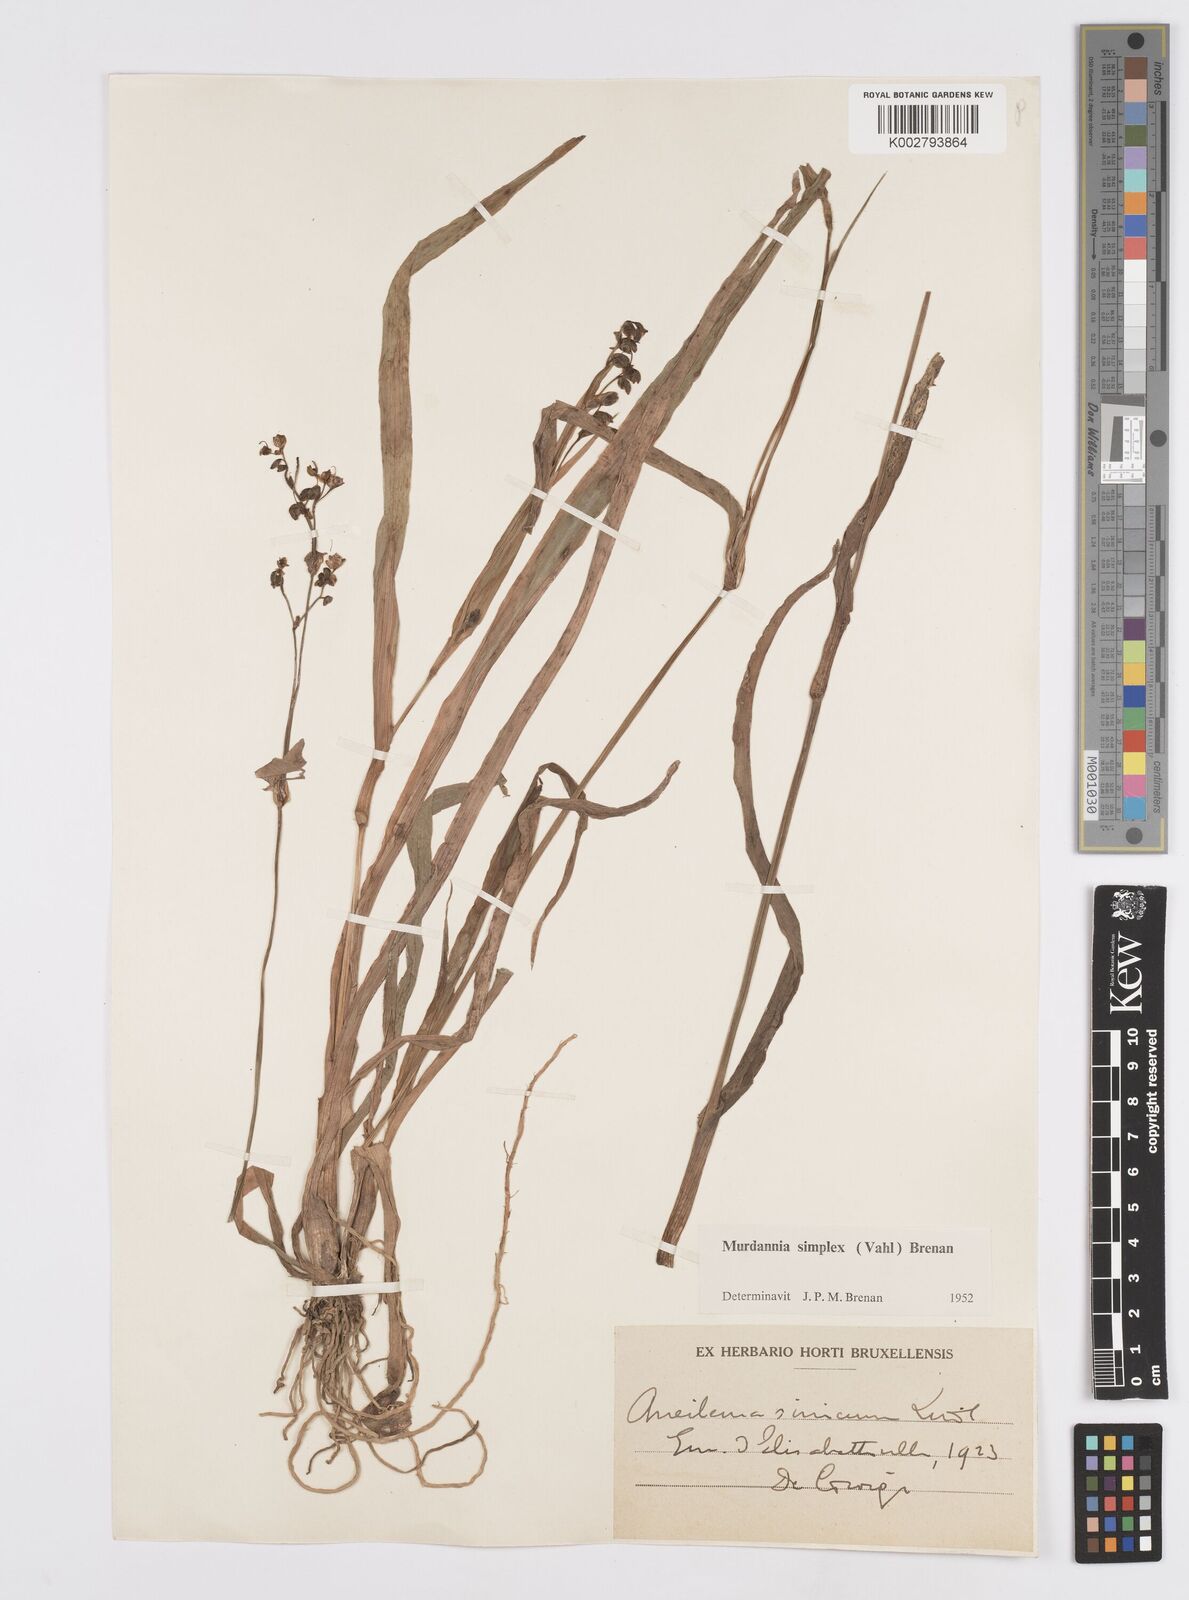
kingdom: Plantae
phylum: Tracheophyta
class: Liliopsida
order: Commelinales
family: Commelinaceae
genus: Murdannia
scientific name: Murdannia simplex
